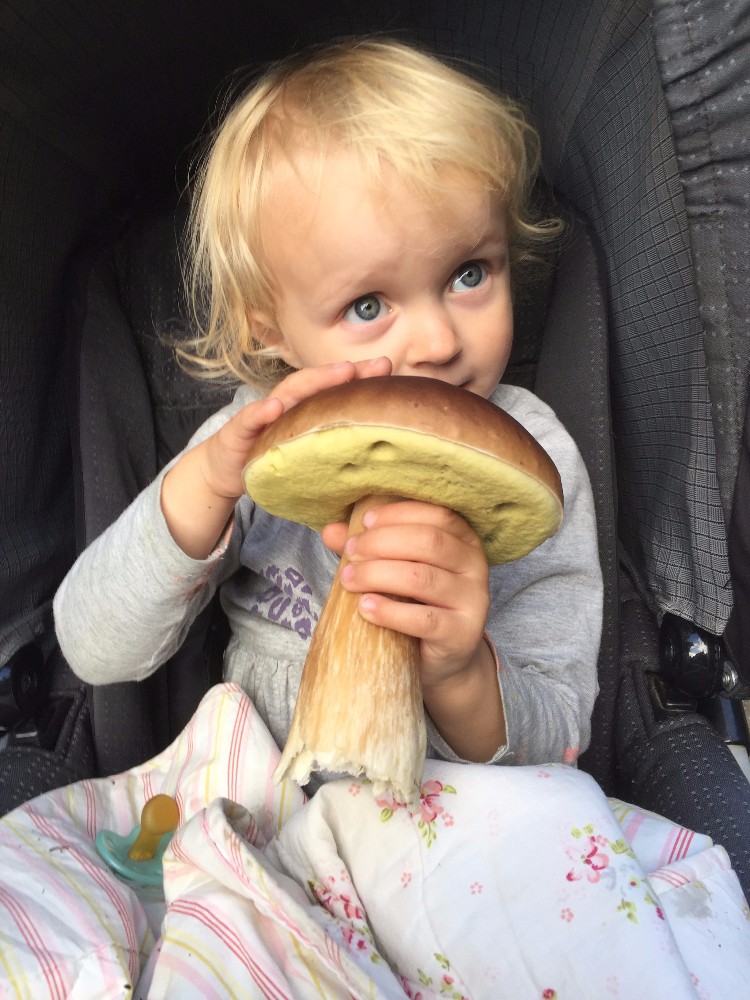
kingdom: Fungi
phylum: Basidiomycota
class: Agaricomycetes
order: Boletales
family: Boletaceae
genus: Boletus
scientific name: Boletus edulis
